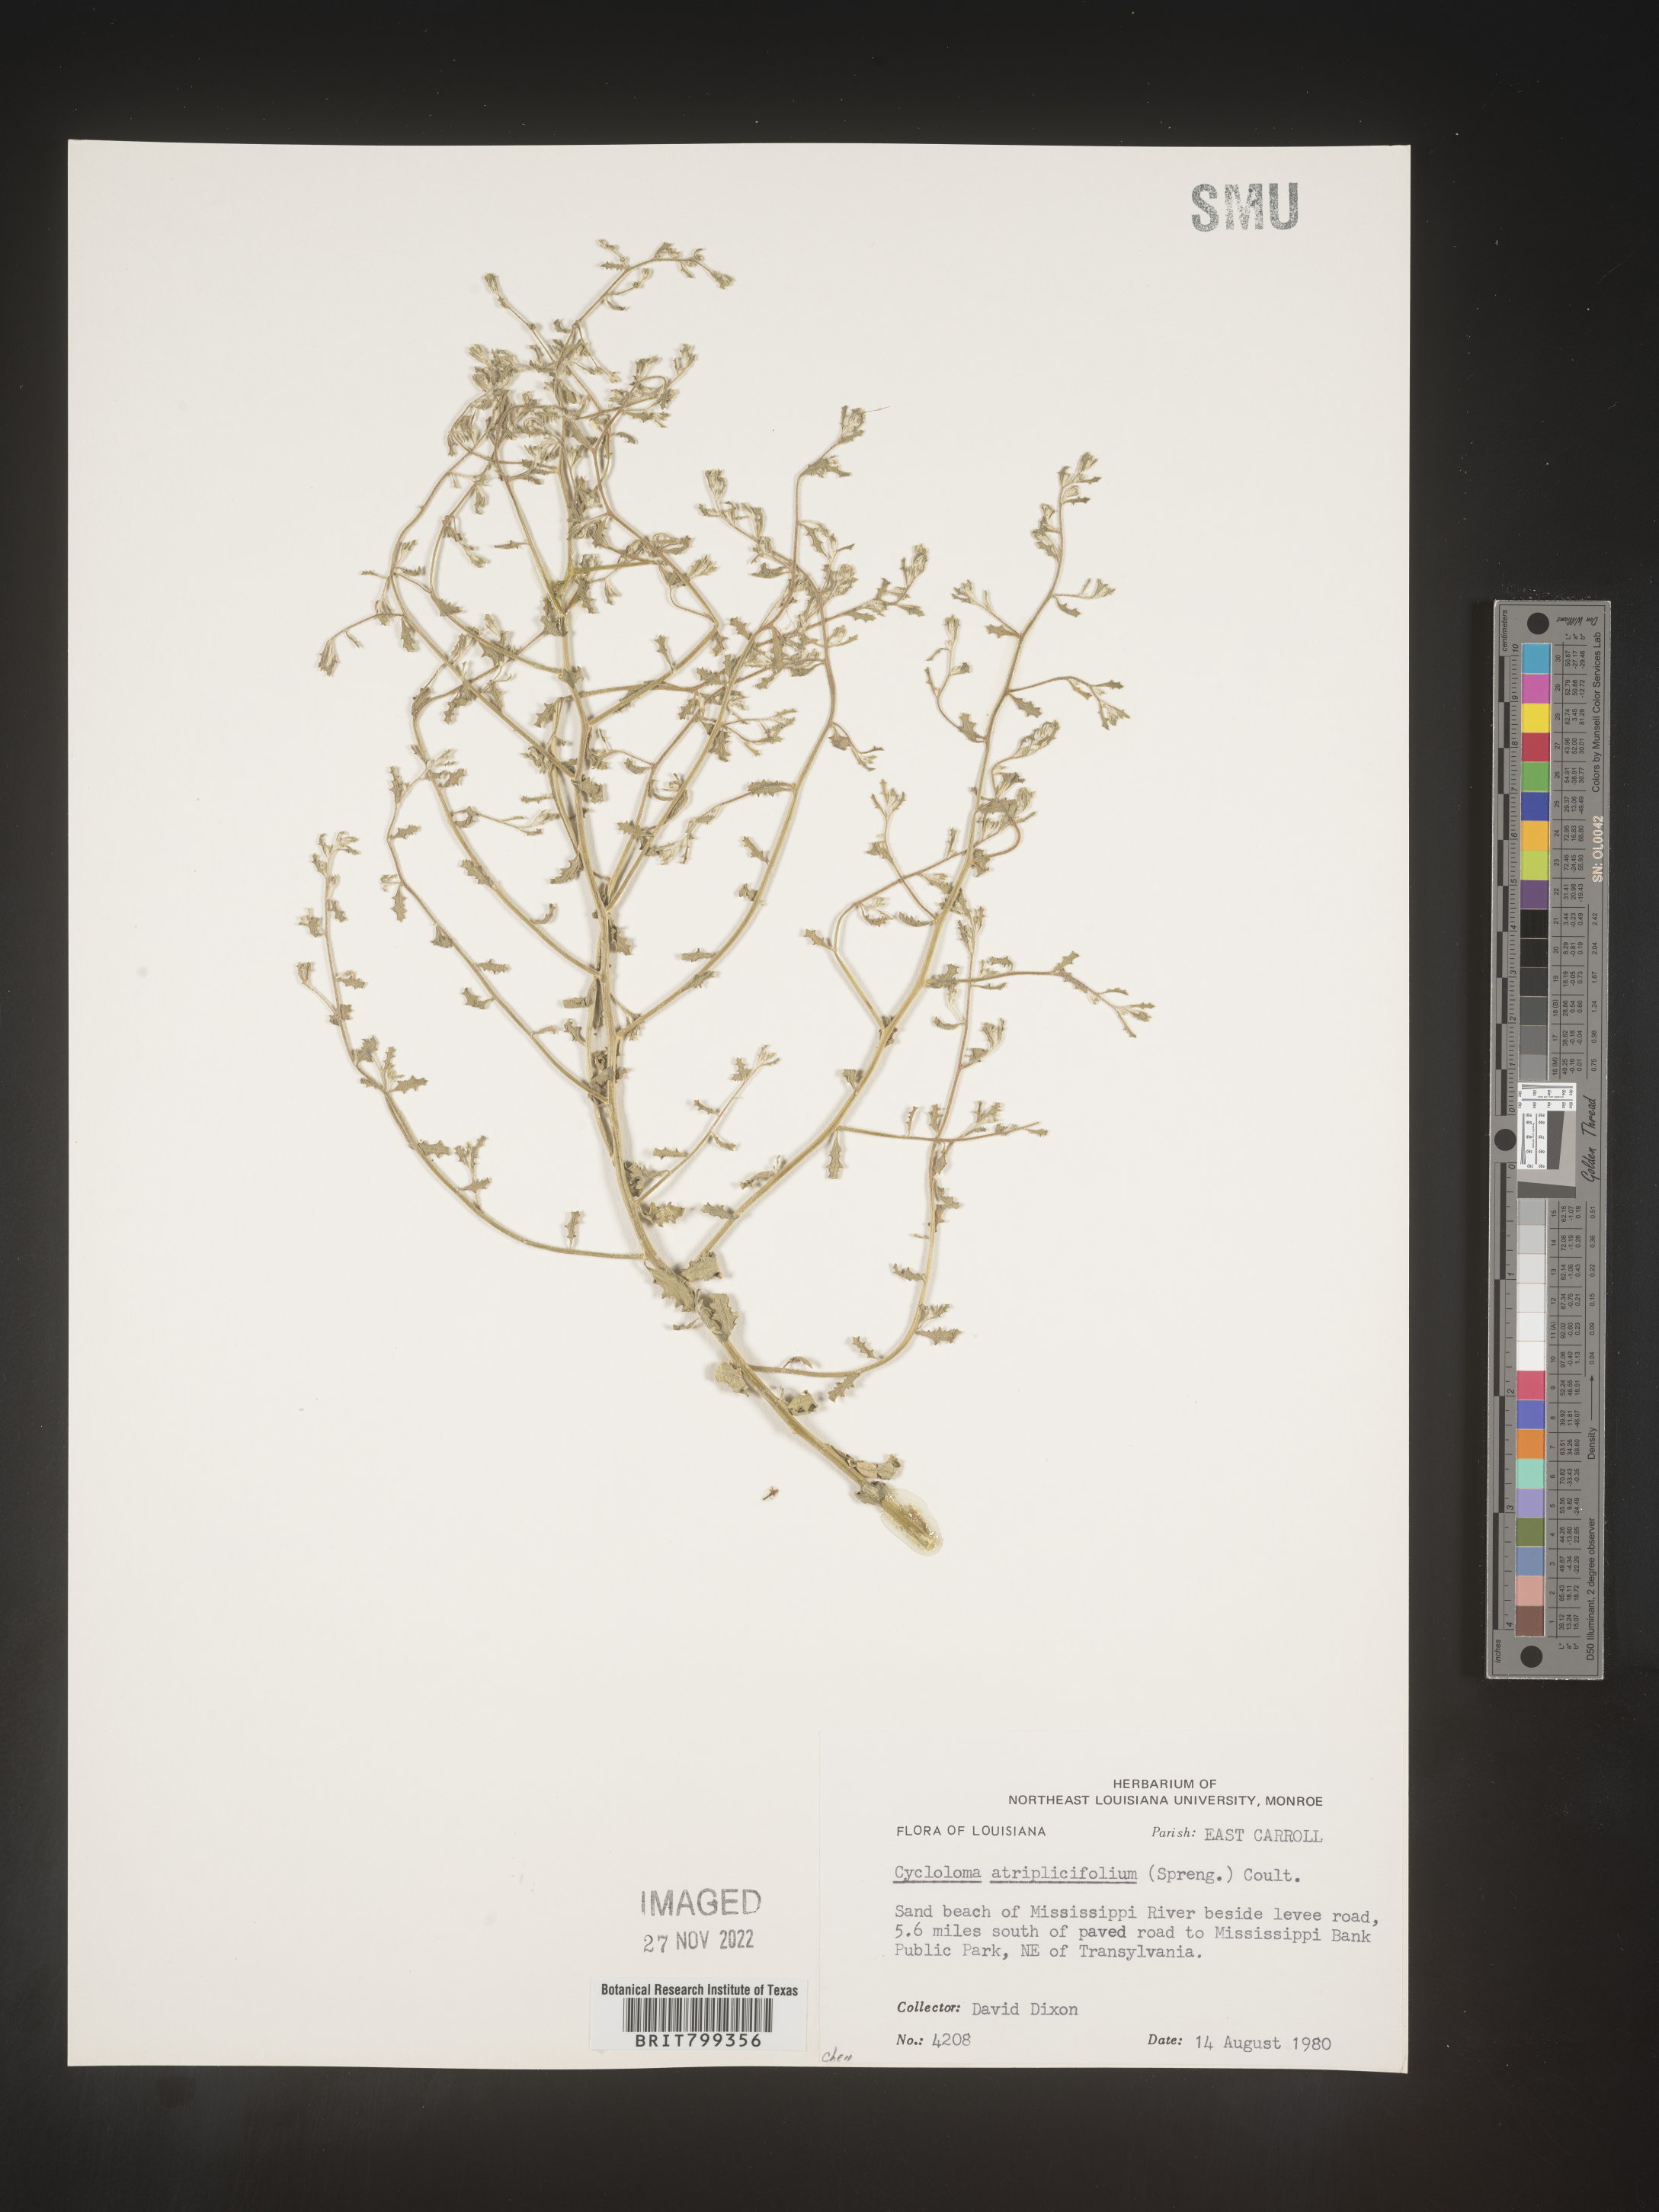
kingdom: Plantae
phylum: Tracheophyta
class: Magnoliopsida
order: Caryophyllales
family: Amaranthaceae
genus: Dysphania
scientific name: Dysphania atriplicifolia
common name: Plains tumbleweed
